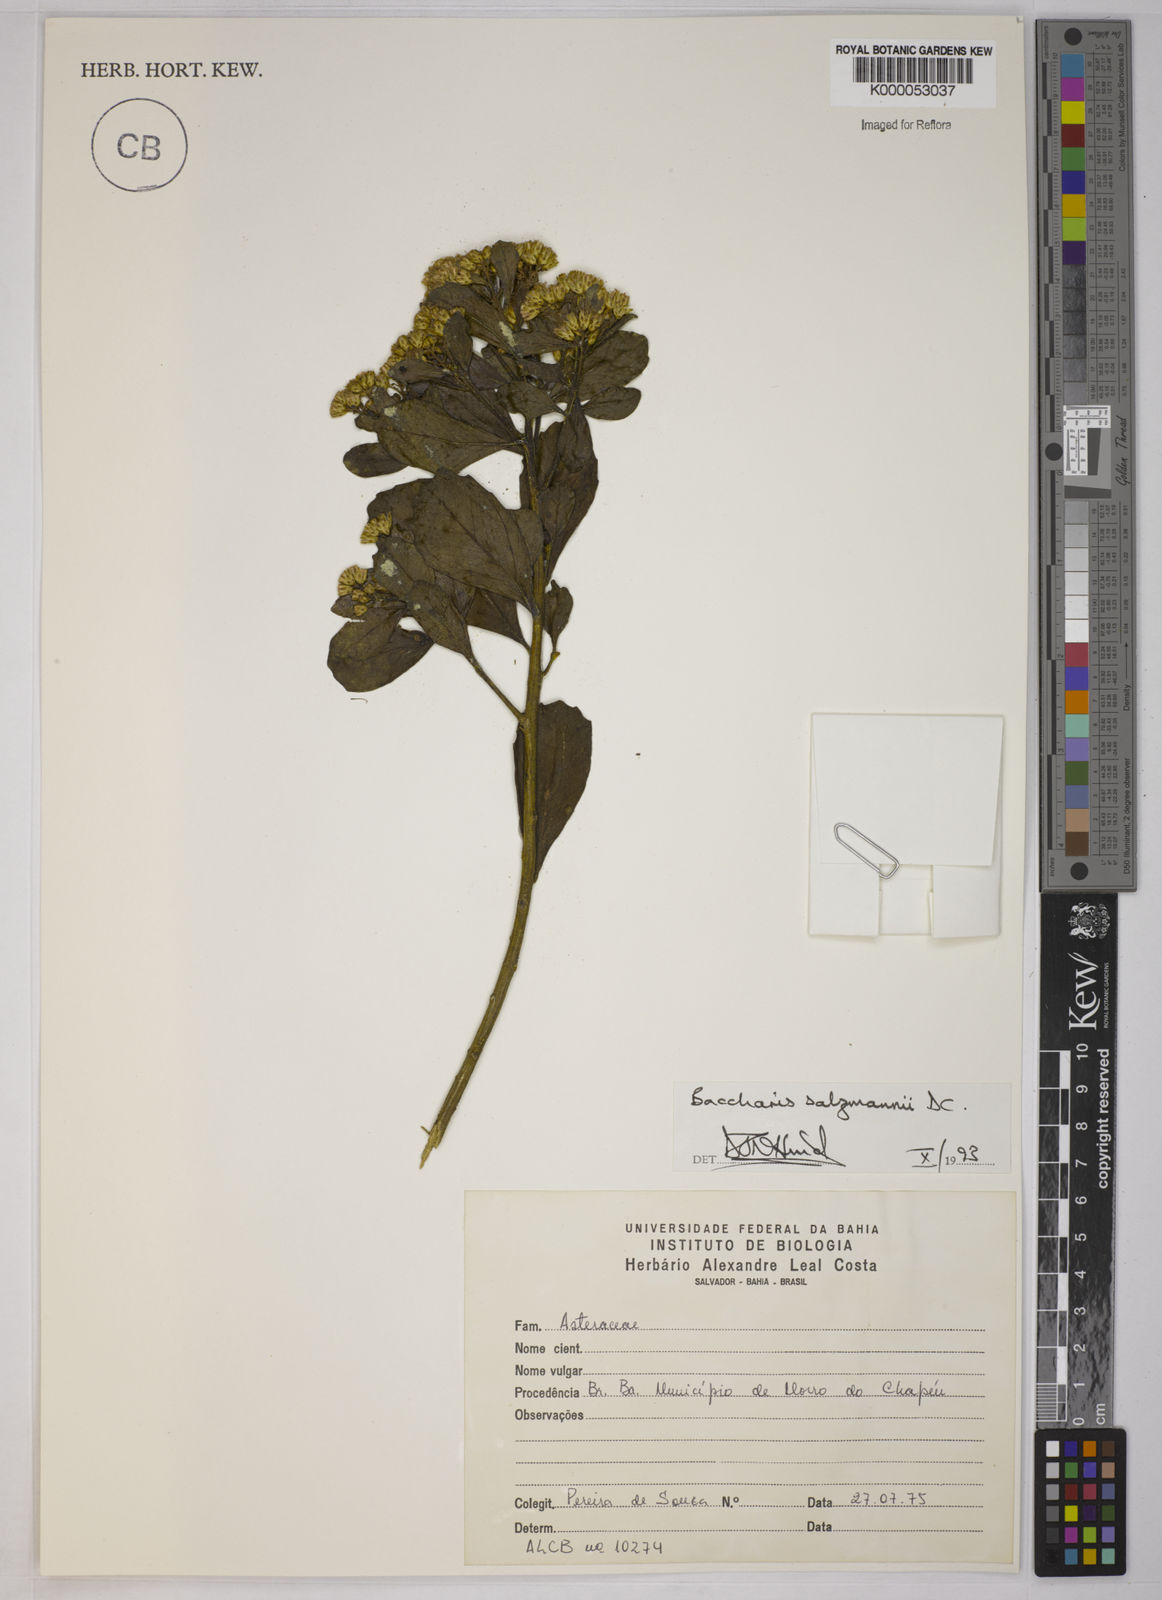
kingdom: Plantae
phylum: Tracheophyta
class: Magnoliopsida
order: Asterales
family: Asteraceae
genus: Baccharis
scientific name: Baccharis retusa
